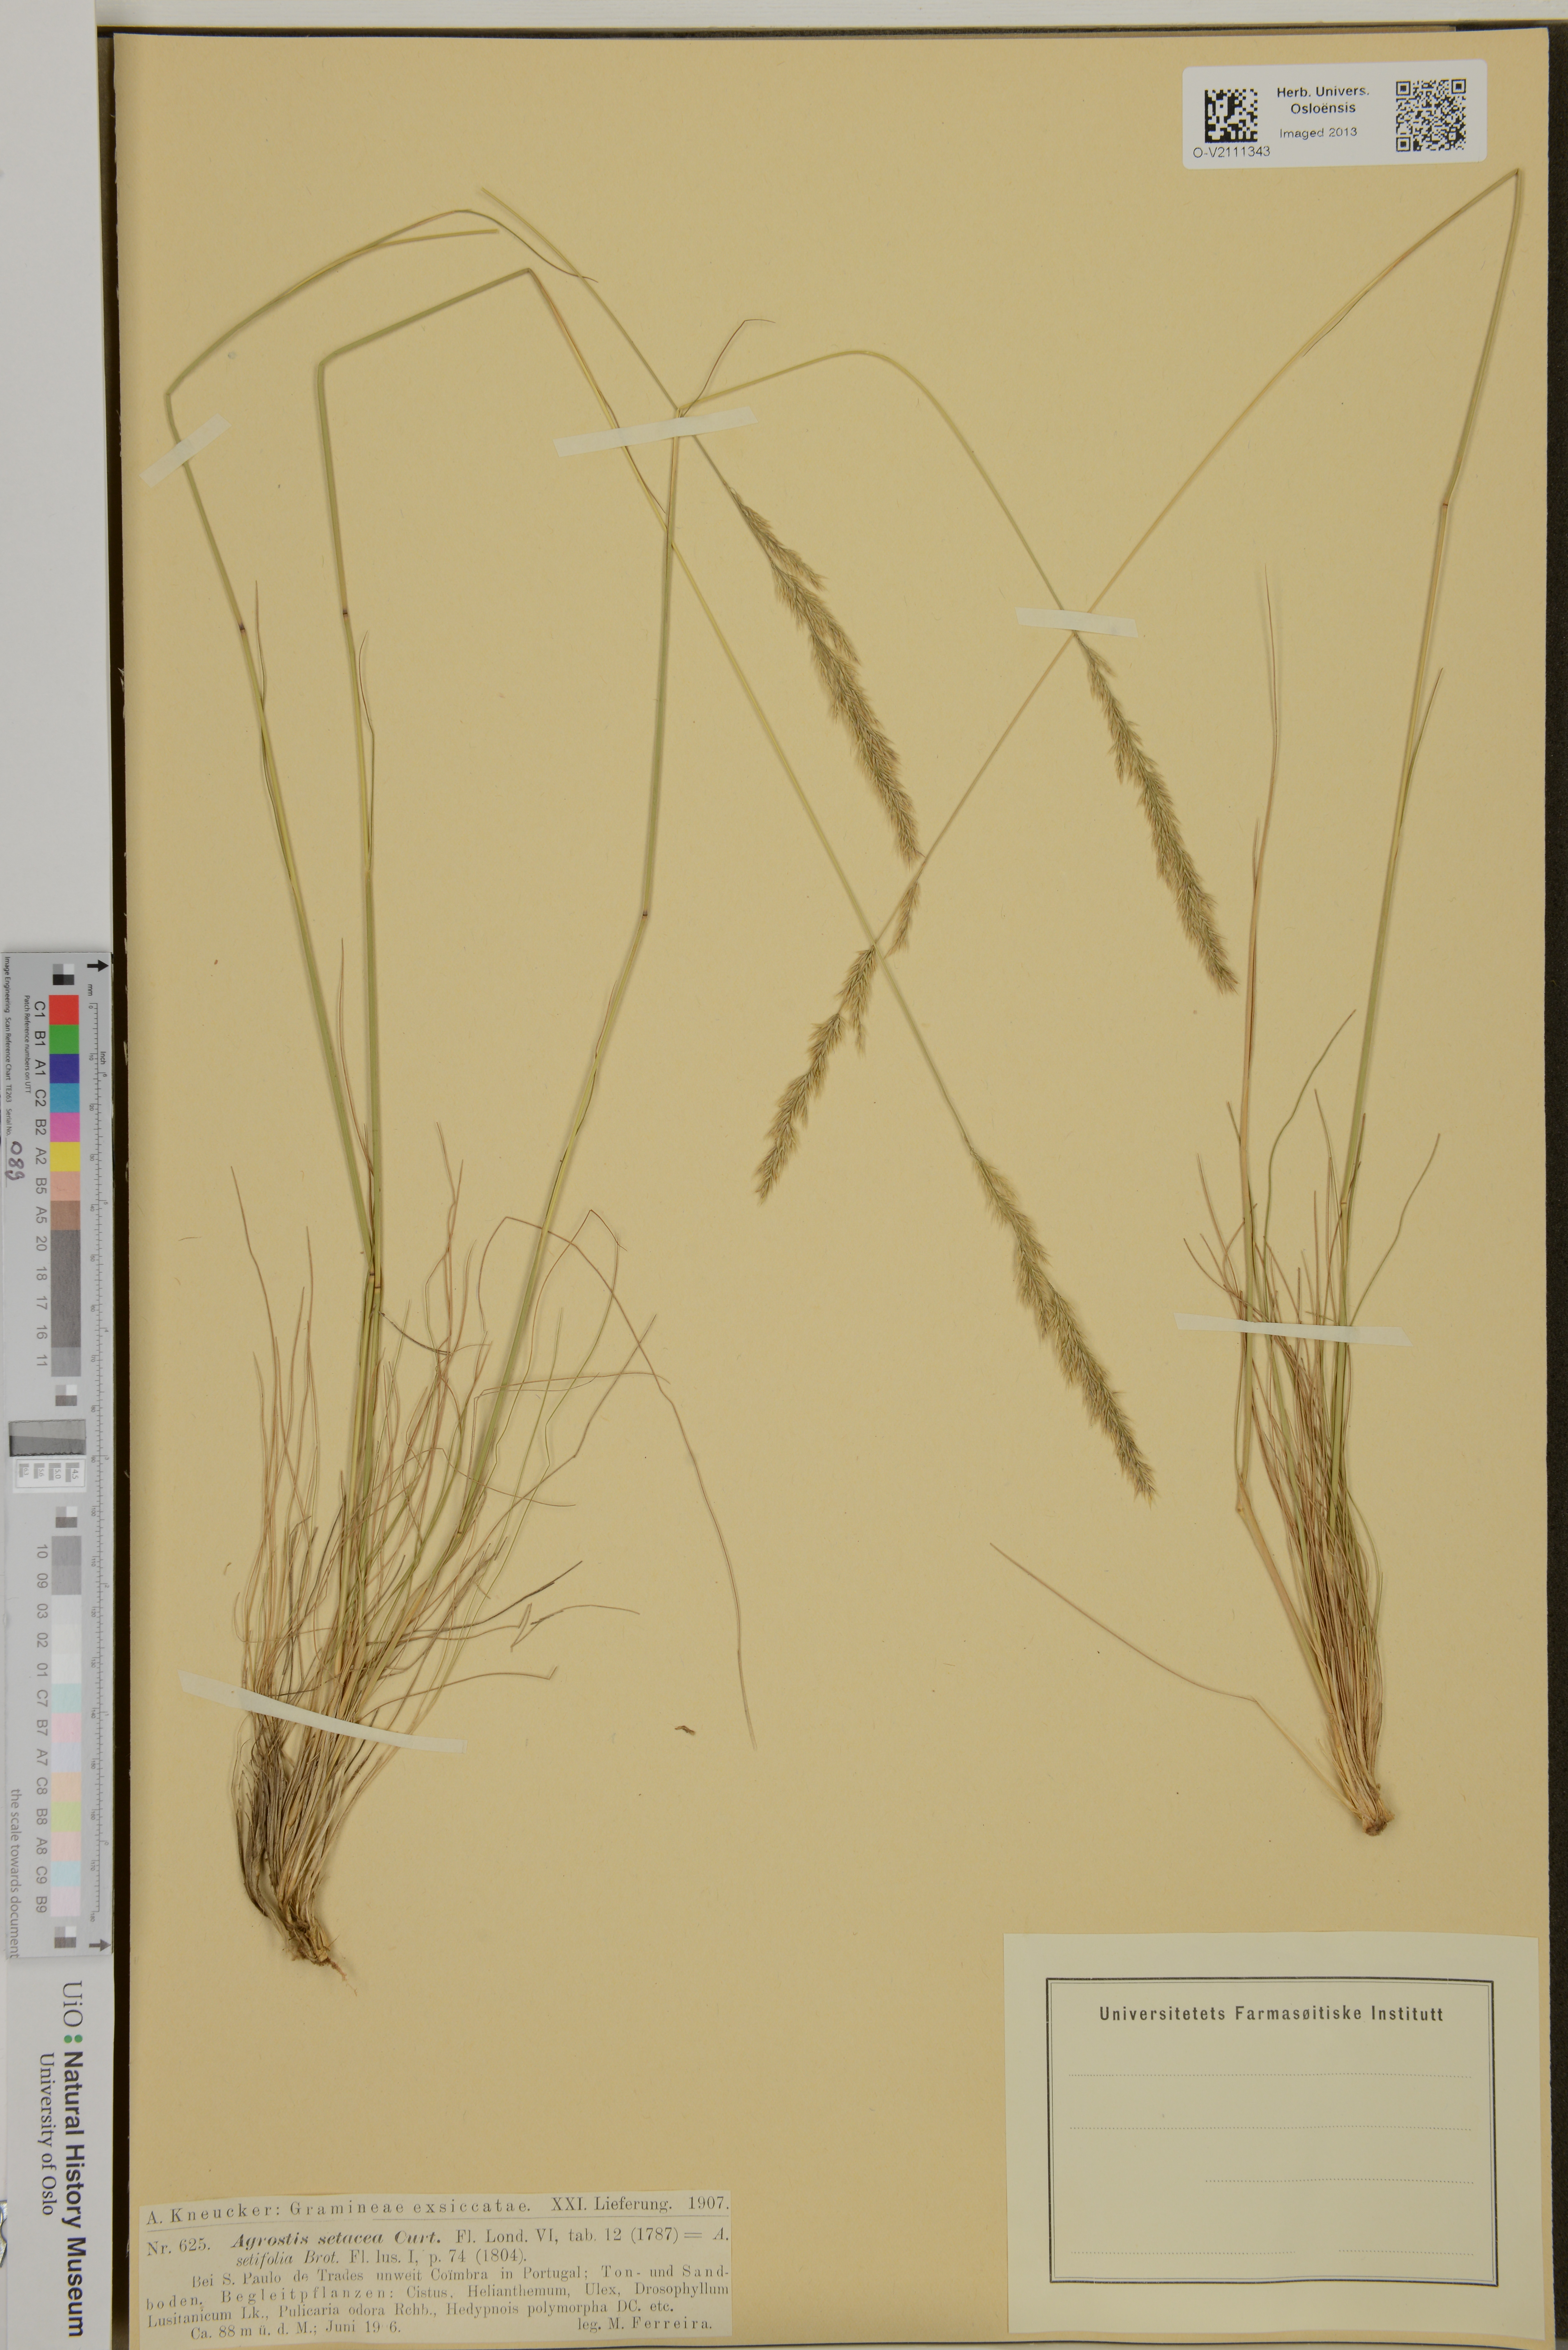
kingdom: Plantae
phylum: Tracheophyta
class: Liliopsida
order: Poales
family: Poaceae
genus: Agrostis
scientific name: Agrostis rupestris
